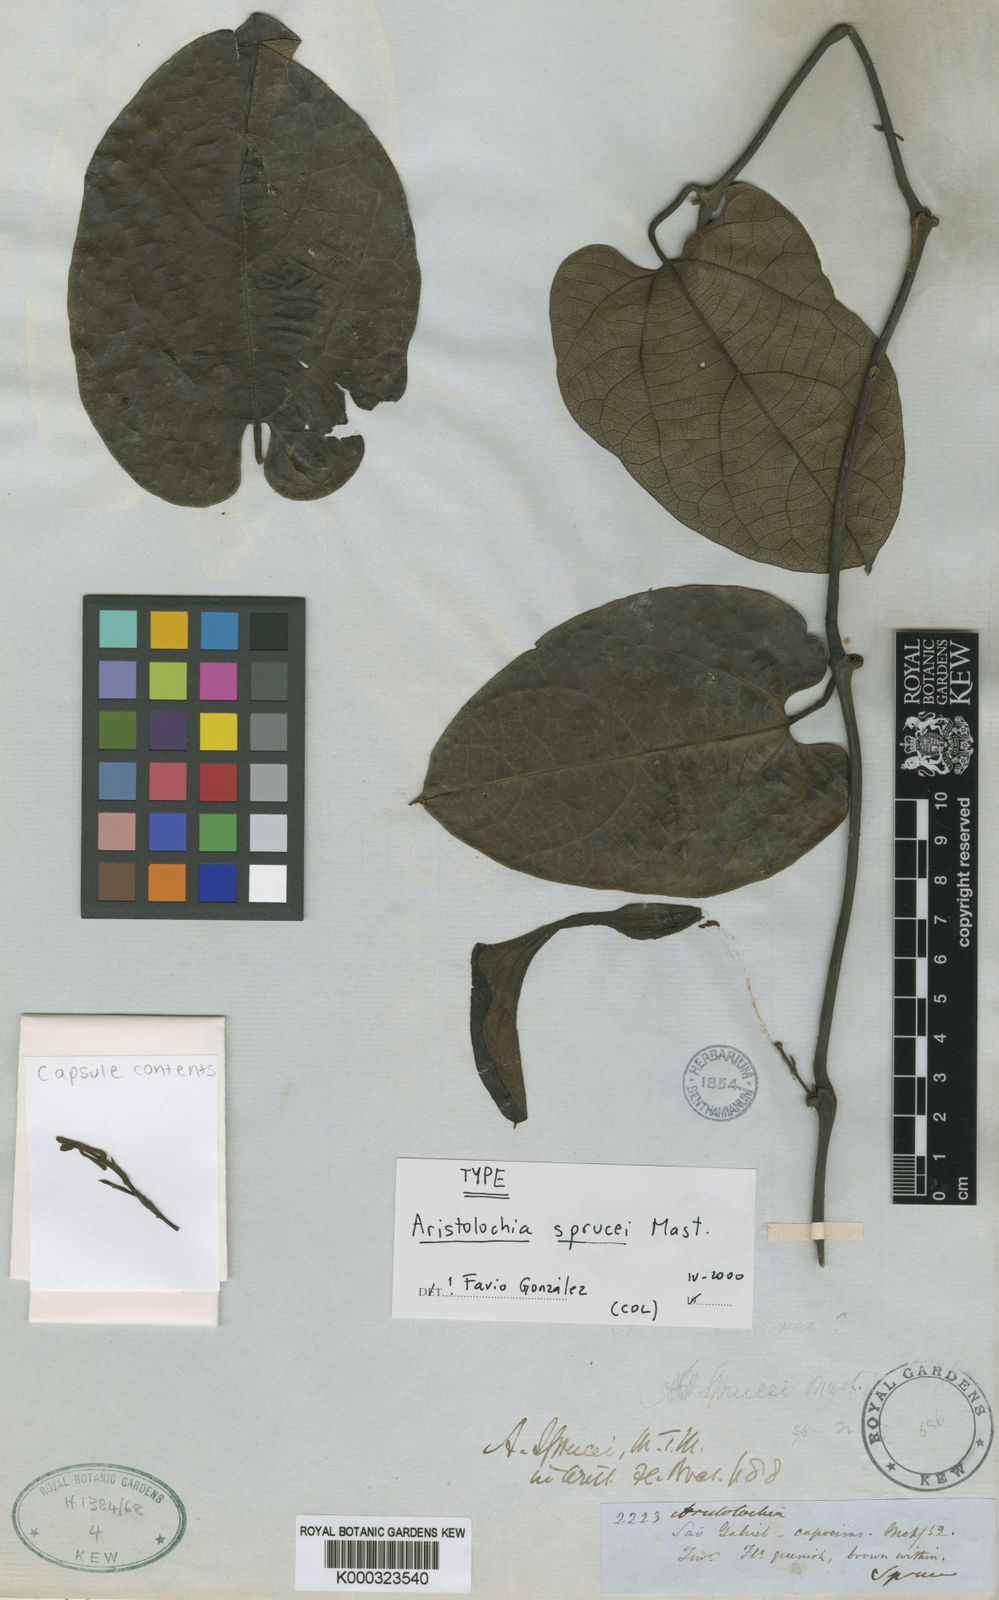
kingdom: Plantae
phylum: Tracheophyta
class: Magnoliopsida
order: Piperales
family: Aristolochiaceae
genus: Aristolochia
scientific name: Aristolochia constricta
